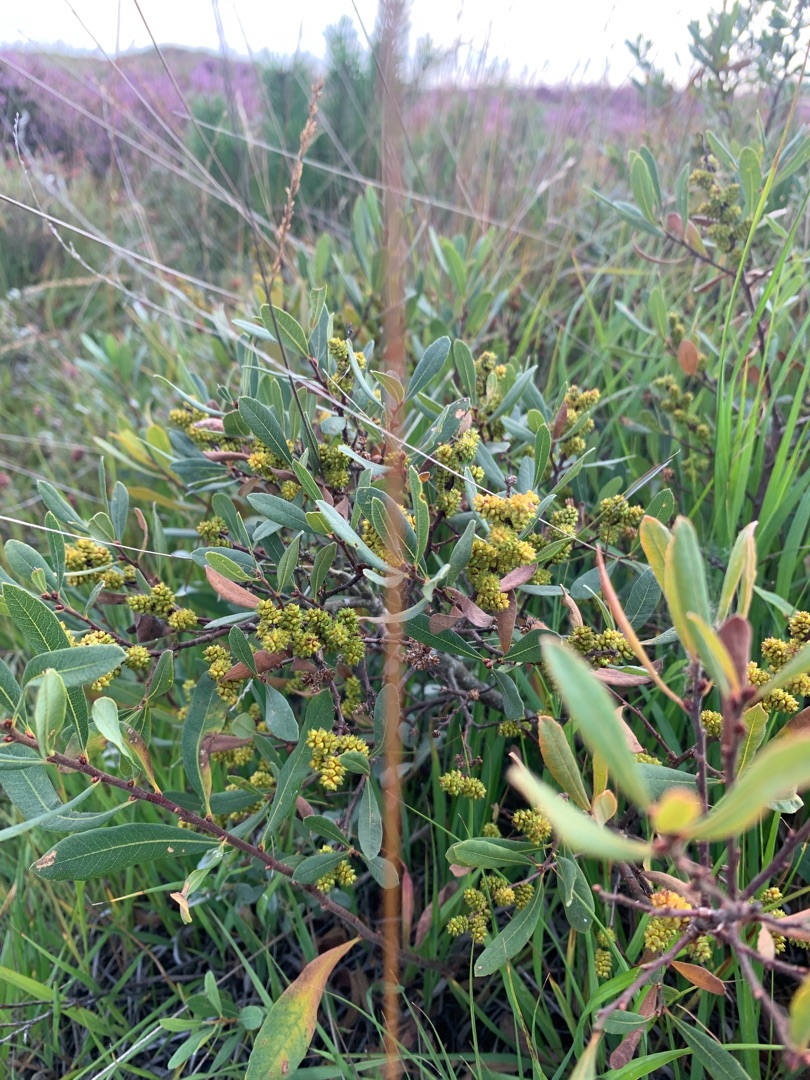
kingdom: Plantae
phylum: Tracheophyta
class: Magnoliopsida
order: Fagales
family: Myricaceae
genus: Myrica
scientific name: Myrica gale
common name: Pors
